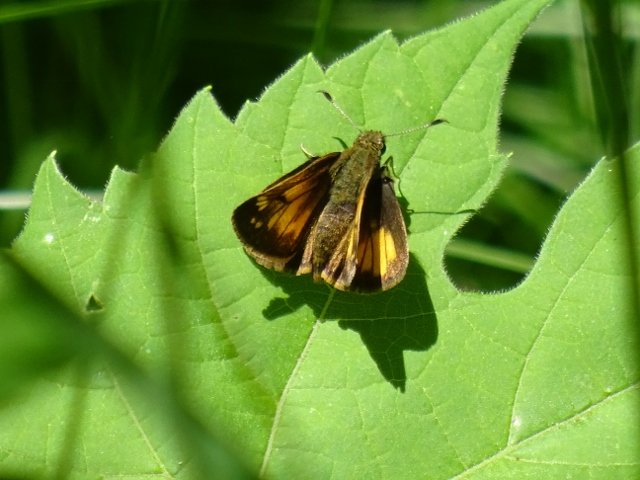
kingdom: Animalia
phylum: Arthropoda
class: Insecta
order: Lepidoptera
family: Hesperiidae
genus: Lon
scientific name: Lon hobomok
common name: Hobomok Skipper
